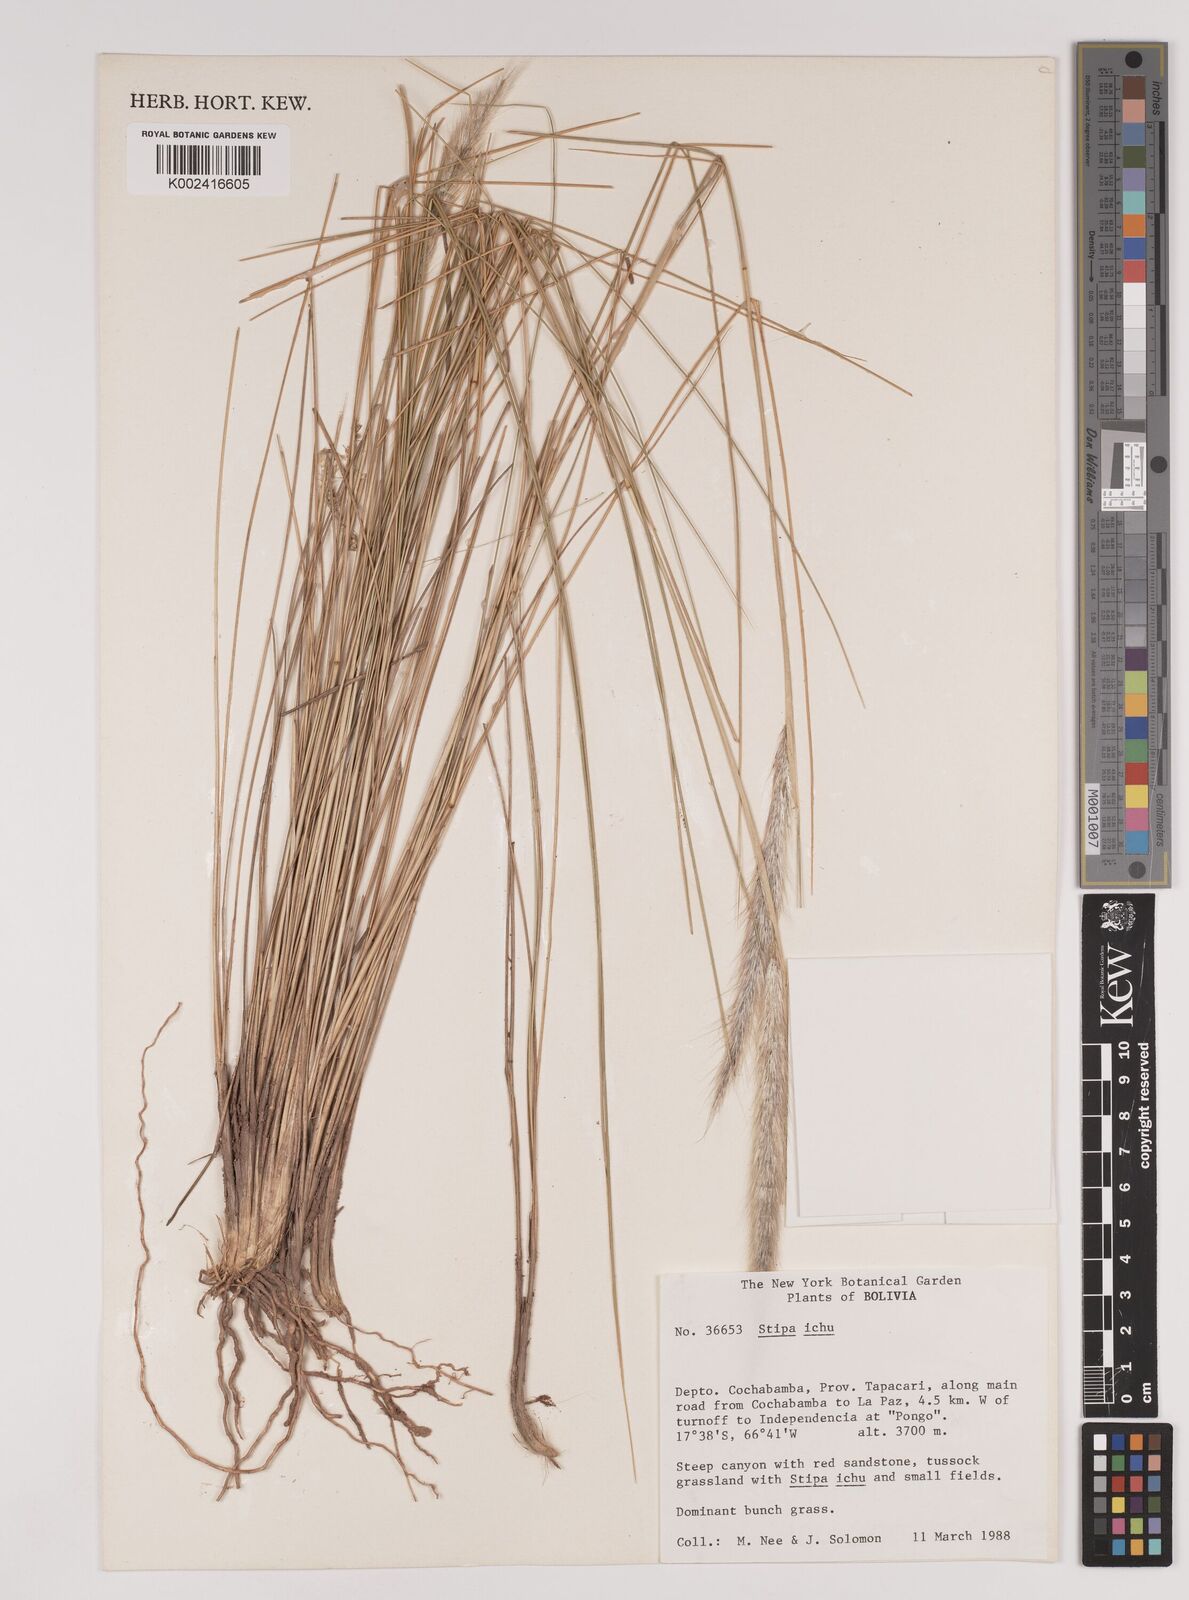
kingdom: Plantae
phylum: Tracheophyta
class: Liliopsida
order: Poales
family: Poaceae
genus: Jarava
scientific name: Jarava leptostachya
